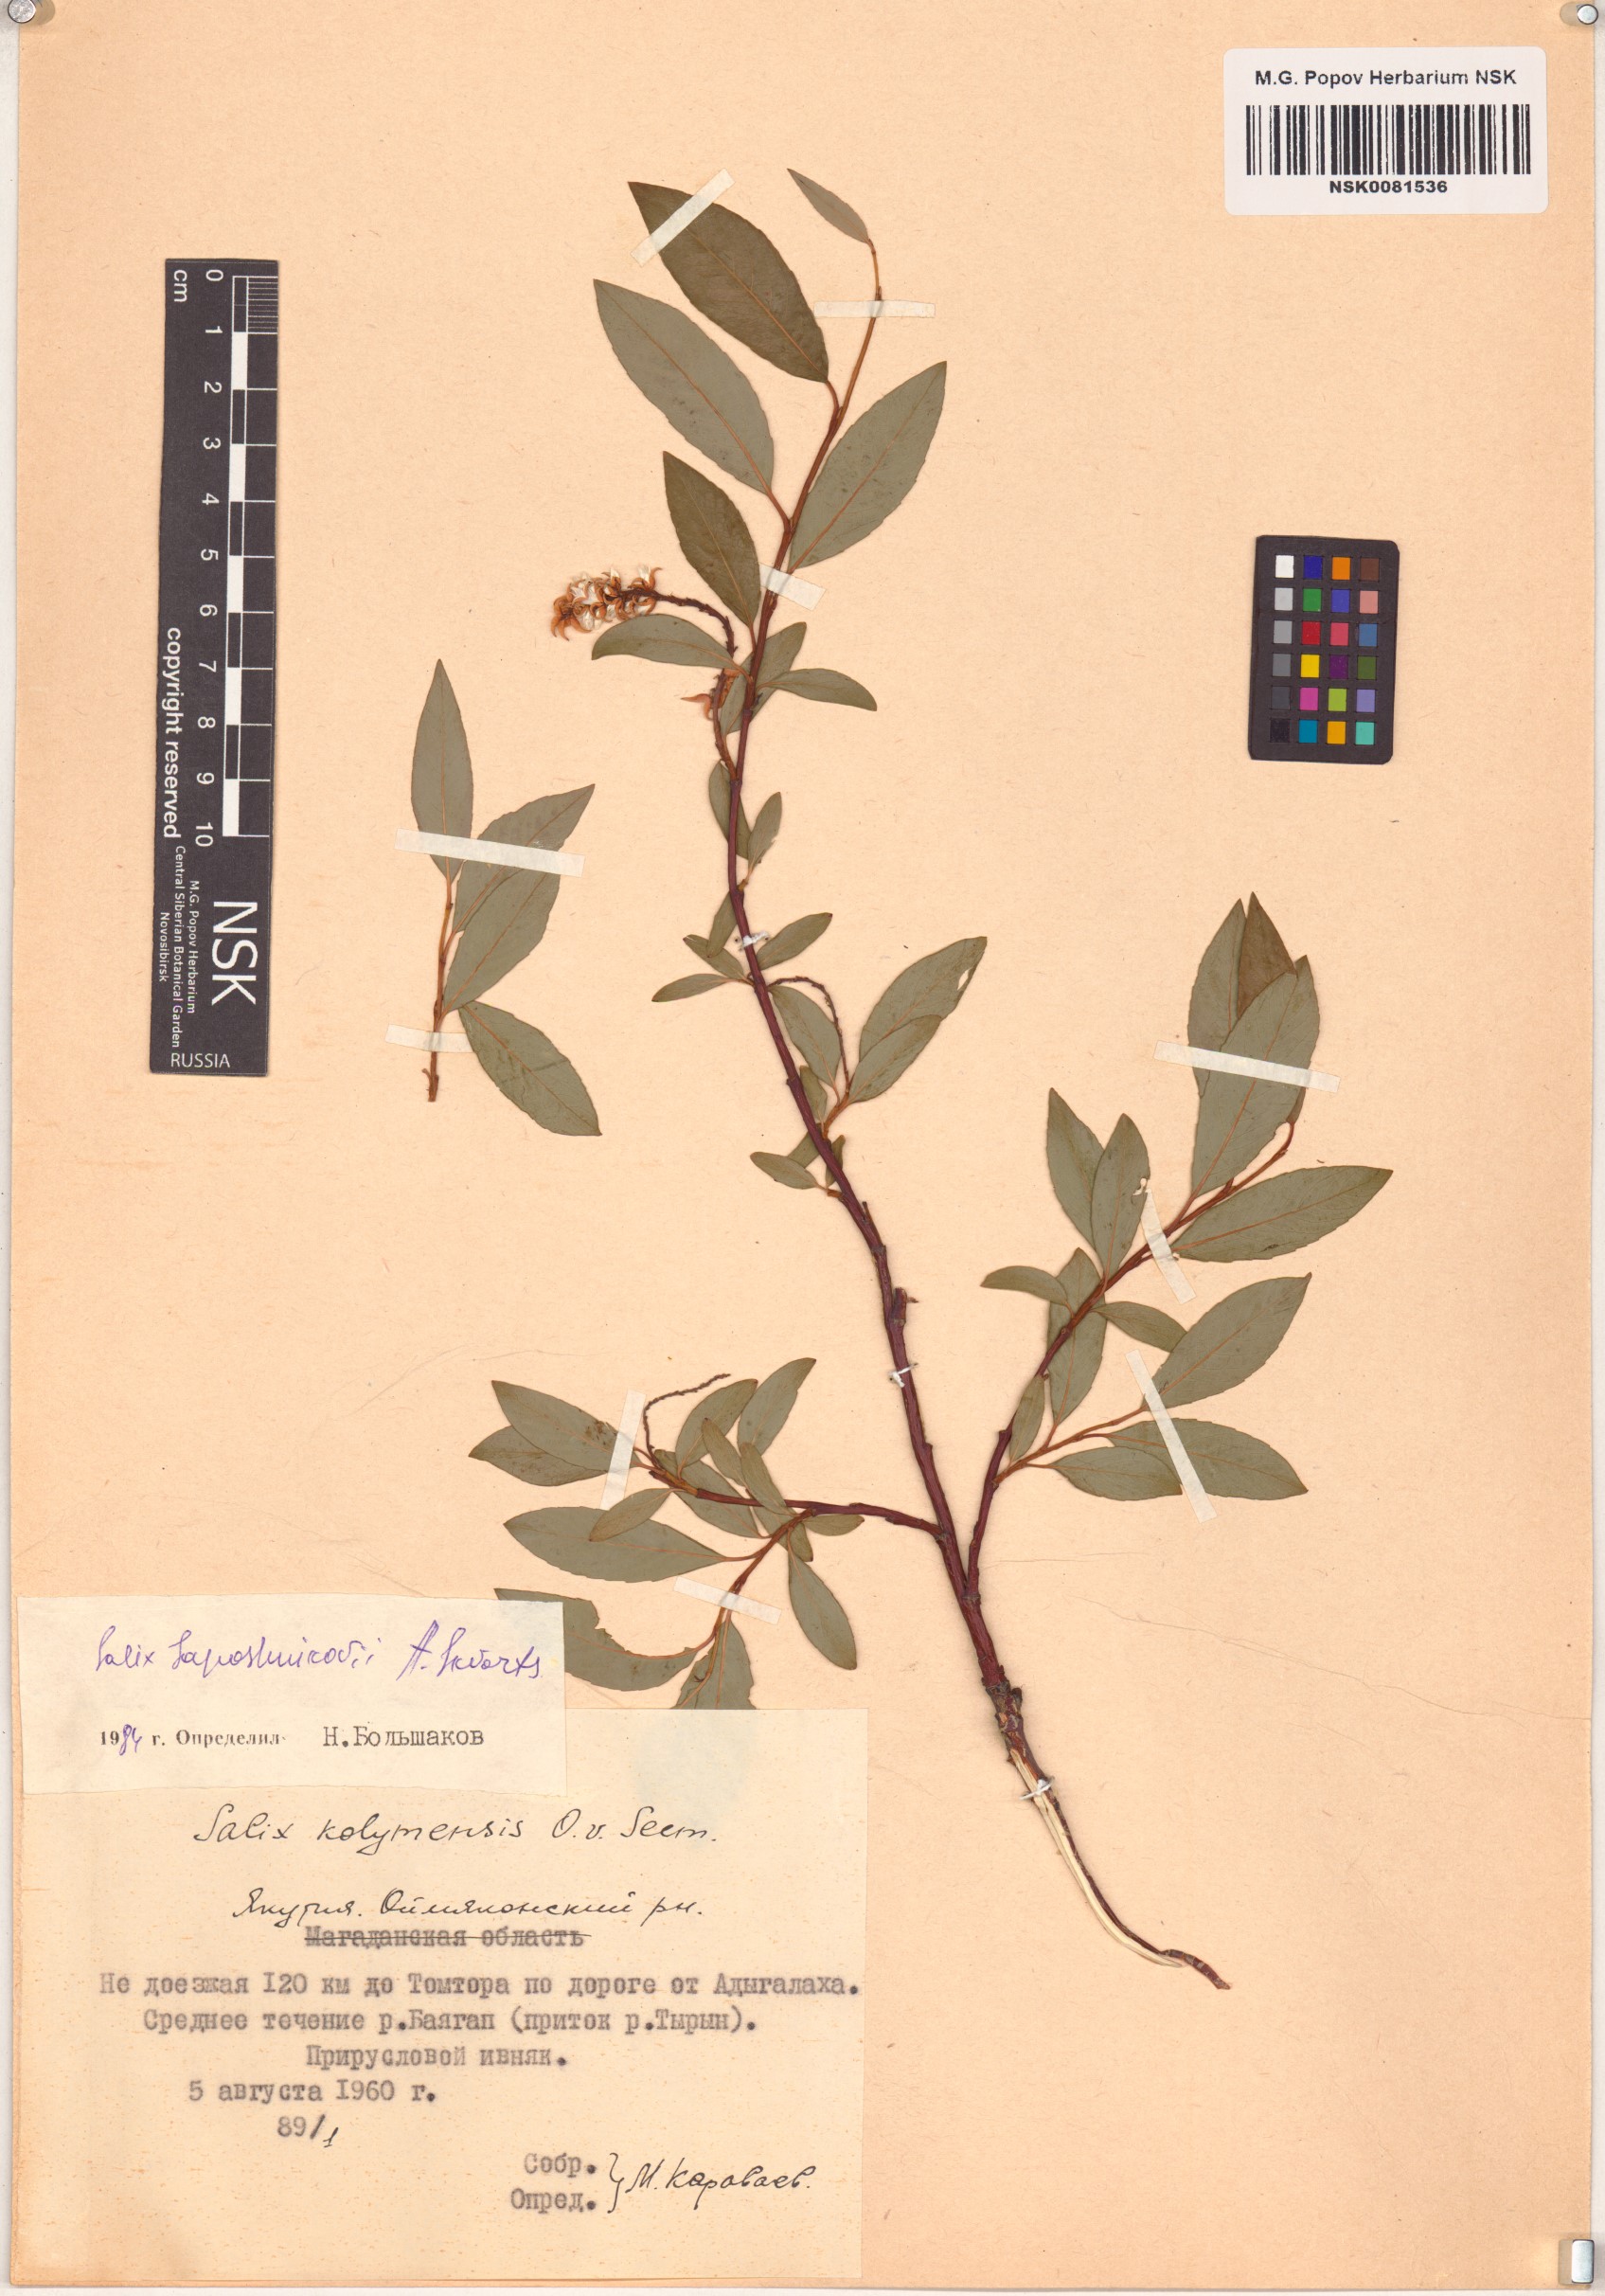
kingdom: Plantae
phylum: Tracheophyta
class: Magnoliopsida
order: Malpighiales
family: Salicaceae
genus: Salix
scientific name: Salix saposhnikovii
